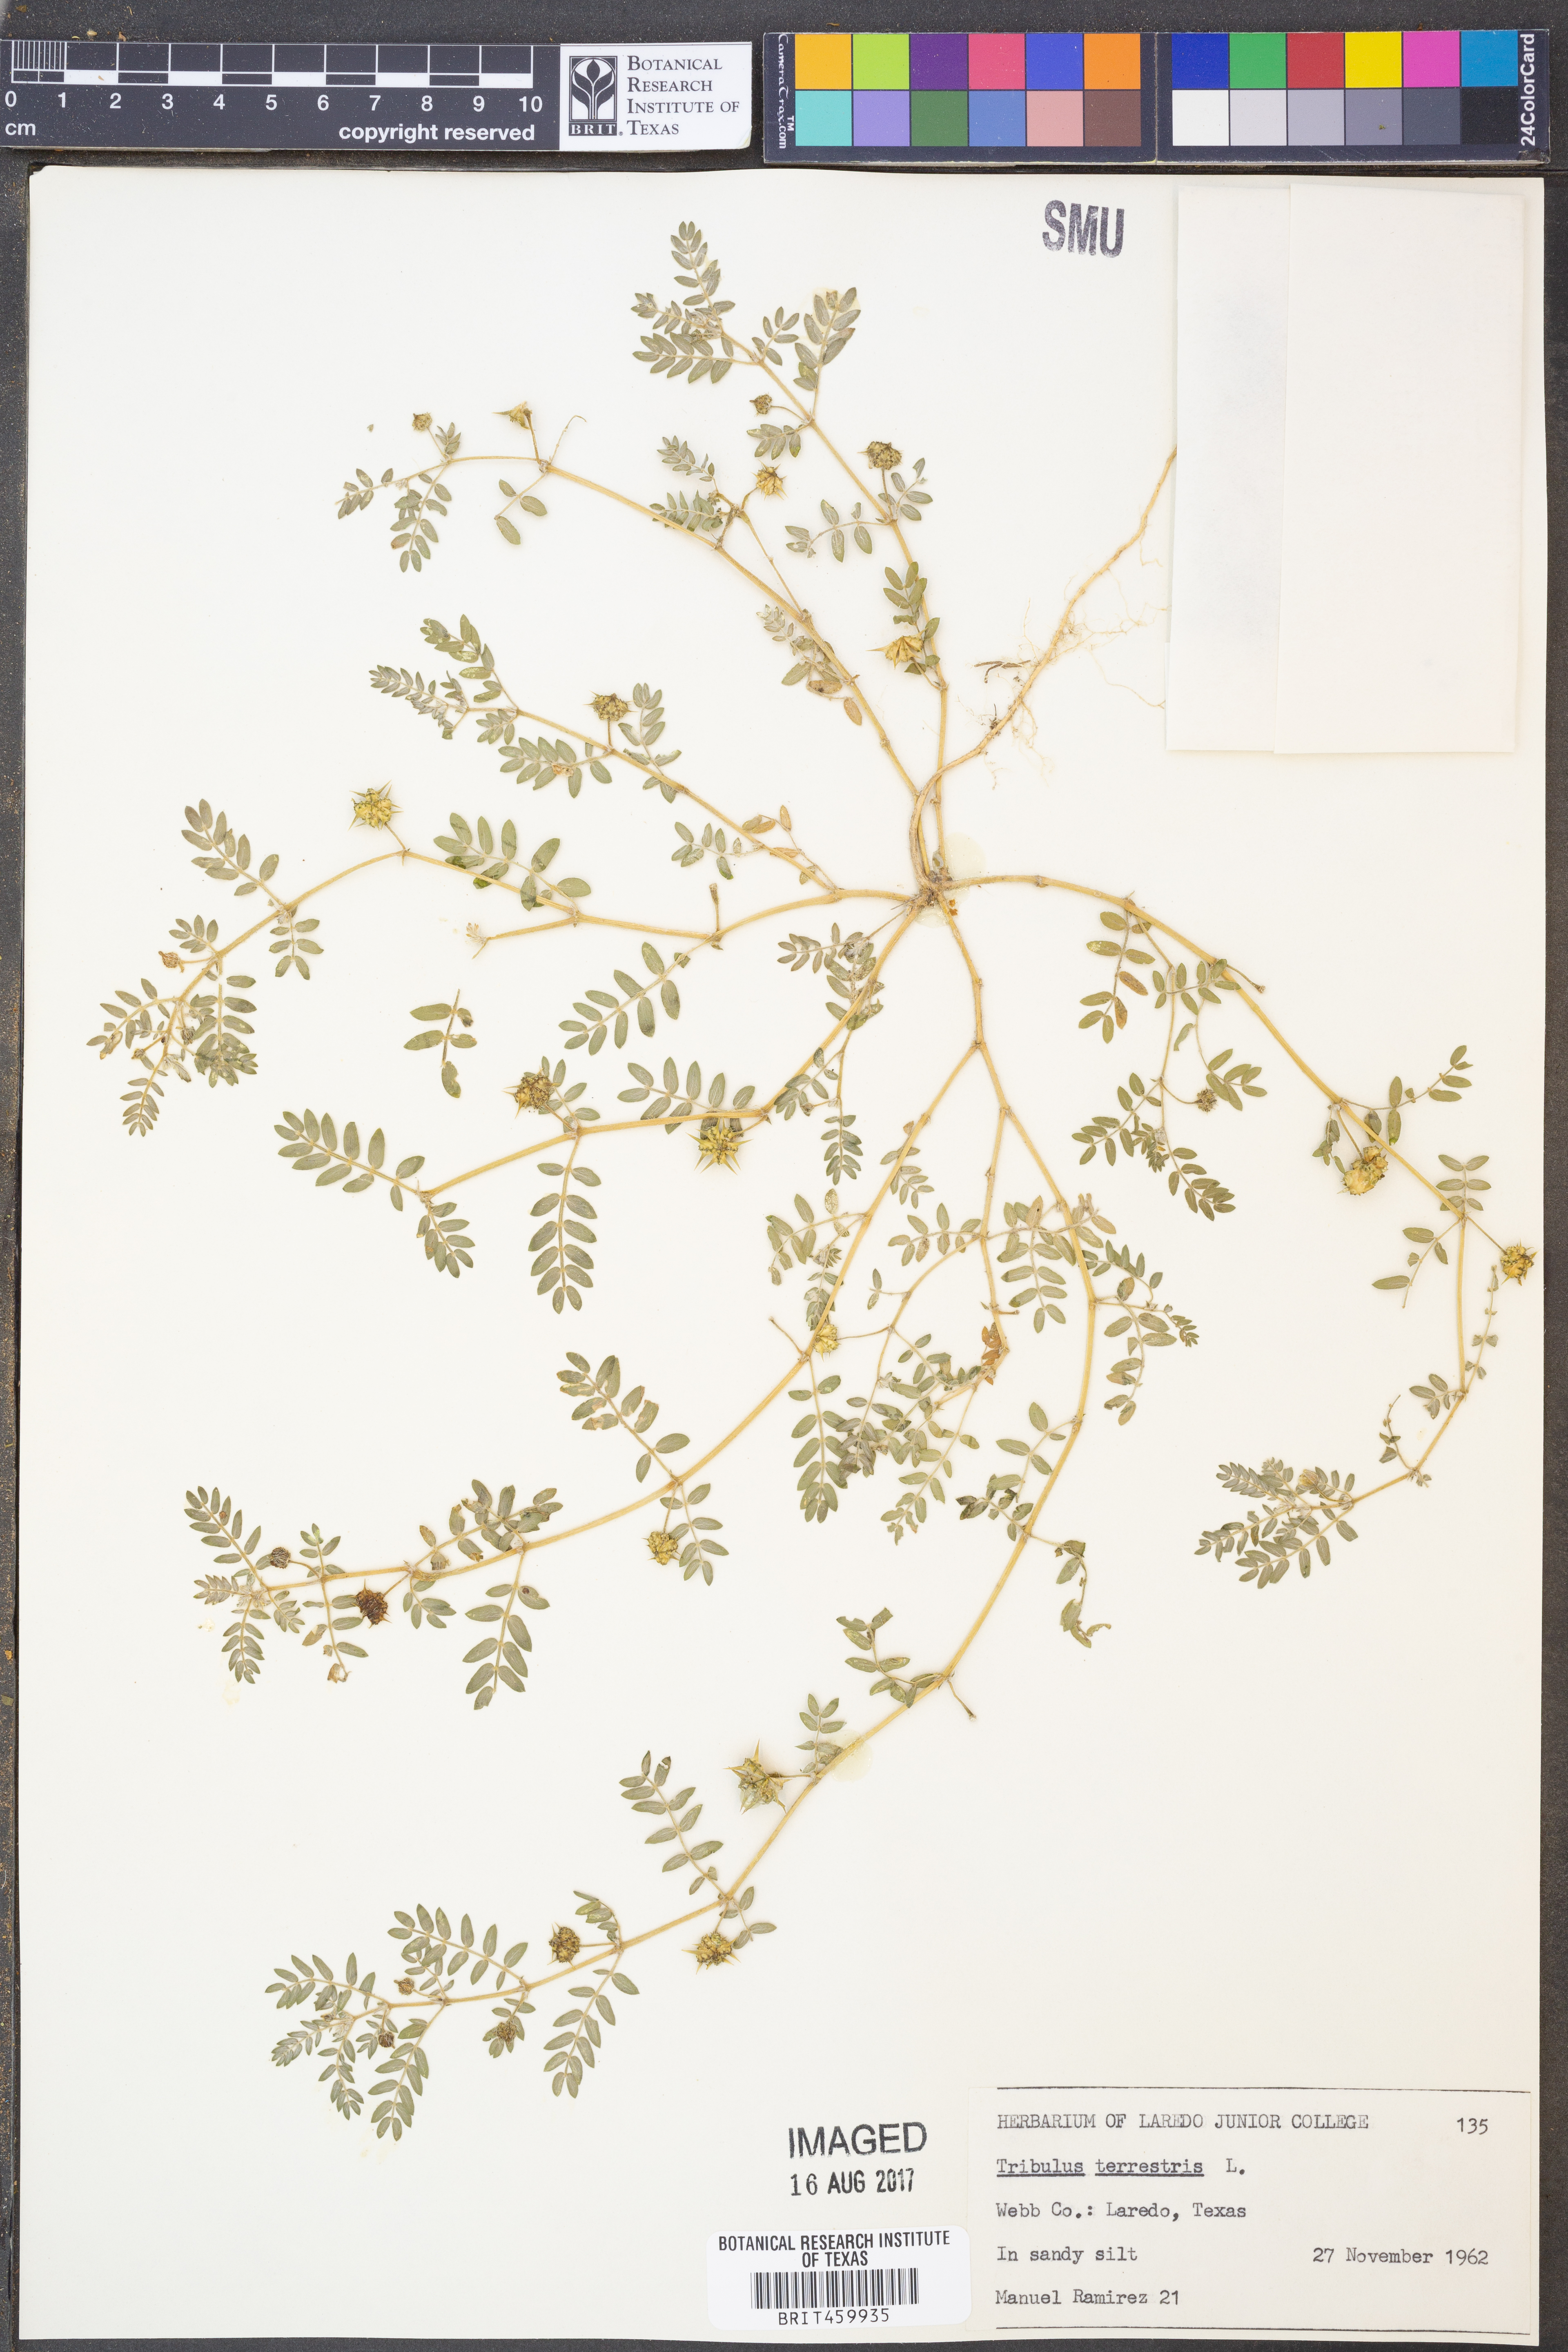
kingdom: Plantae
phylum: Tracheophyta
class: Magnoliopsida
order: Zygophyllales
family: Zygophyllaceae
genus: Tribulus
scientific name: Tribulus terrestris
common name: Puncturevine
